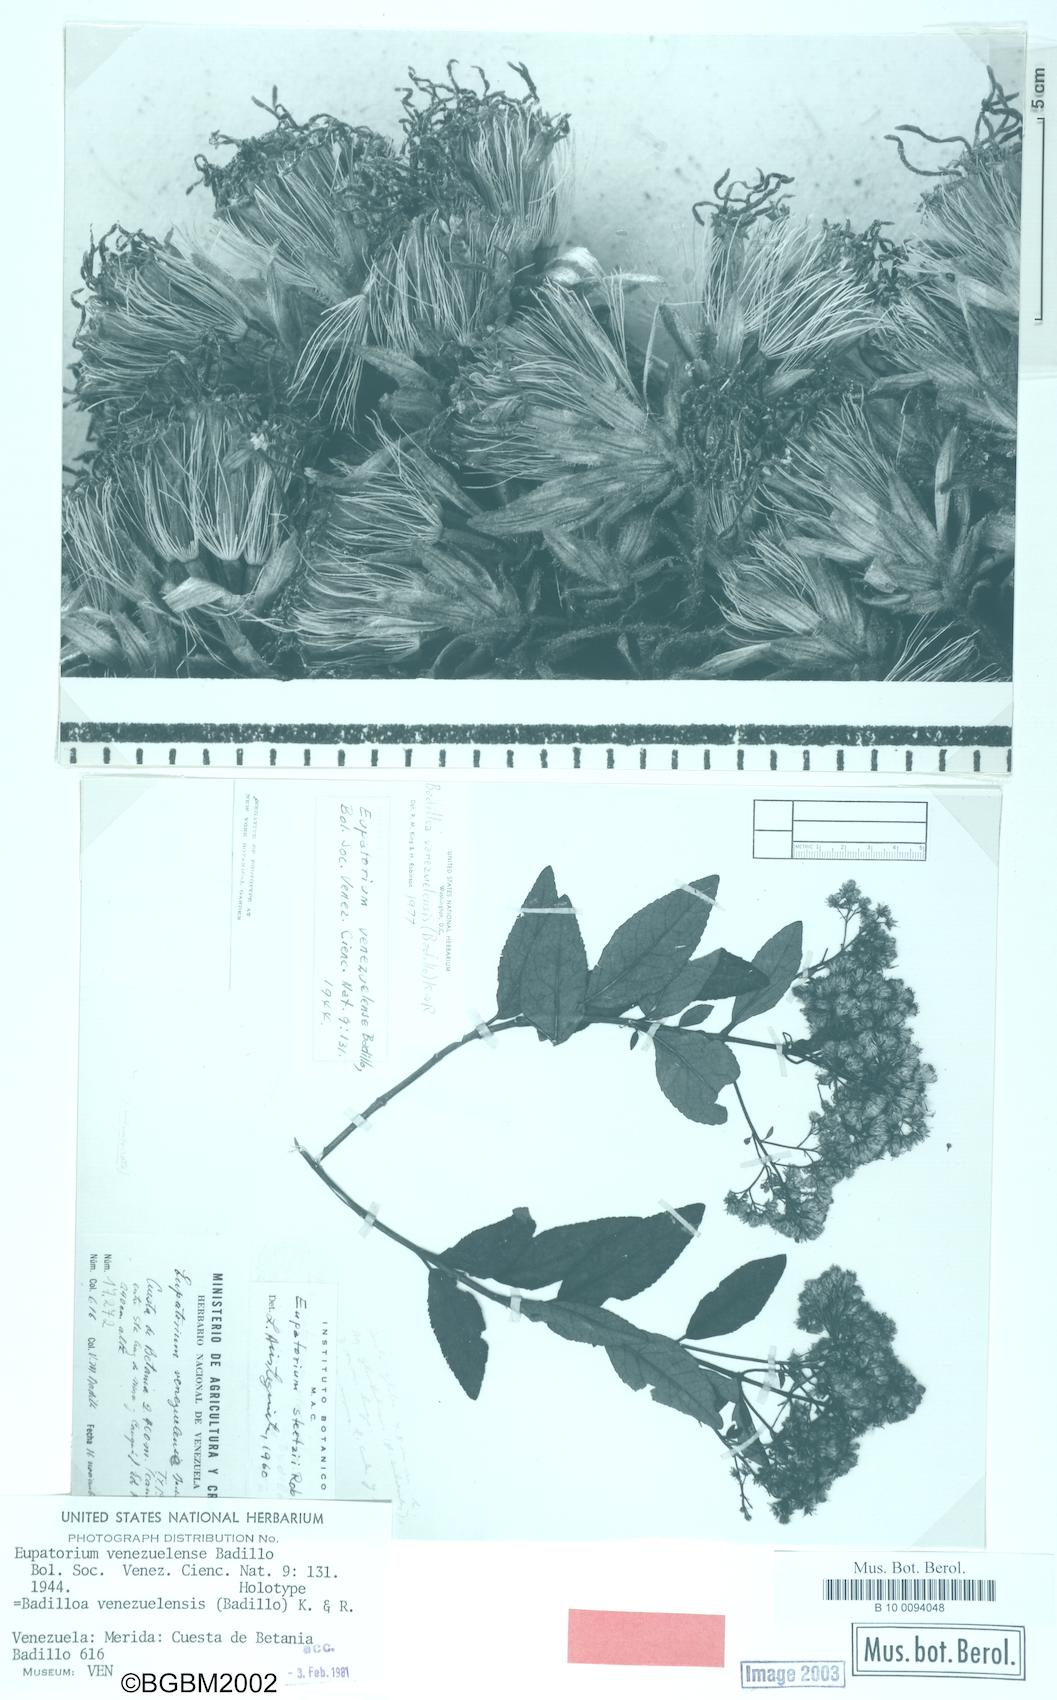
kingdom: Plantae
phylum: Tracheophyta
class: Magnoliopsida
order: Asterales
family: Asteraceae
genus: Badilloa
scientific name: Badilloa venezuelensis
